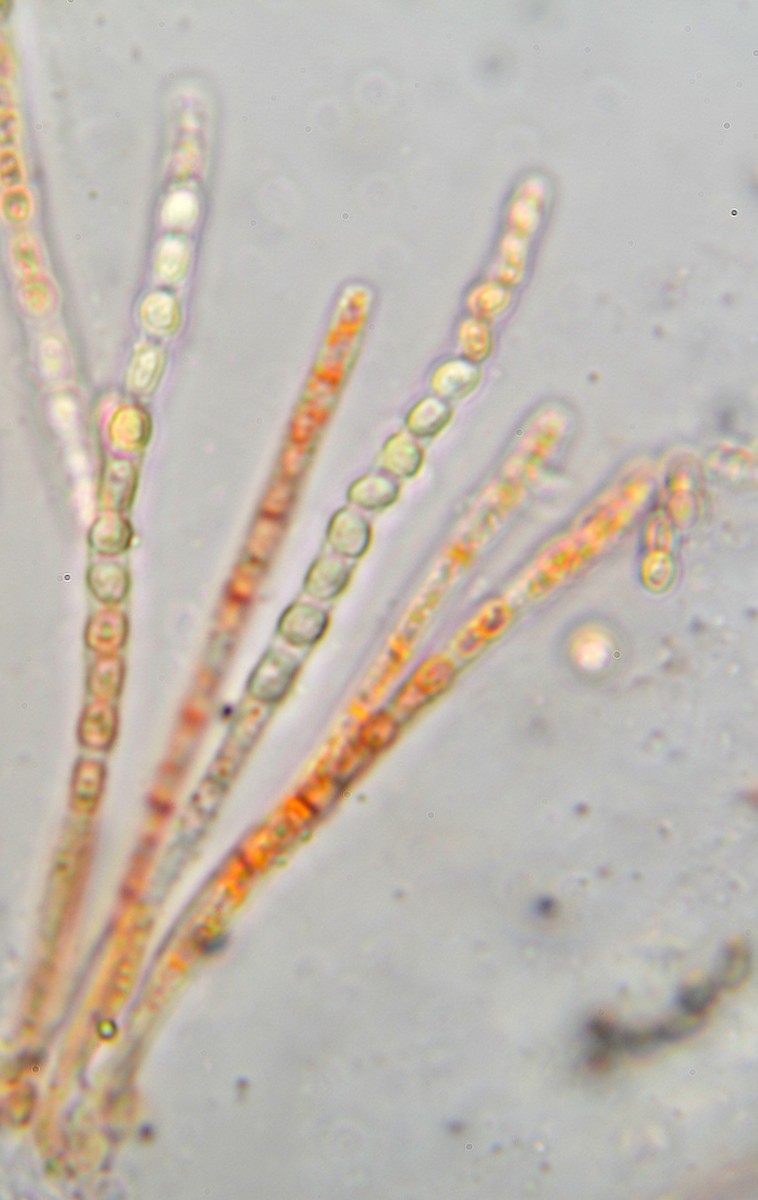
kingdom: Fungi
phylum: Ascomycota
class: Sordariomycetes
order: Hypocreales
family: Hypocreaceae
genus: Trichoderma
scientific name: Trichoderma europaeum
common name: rosabrun kødkerne
